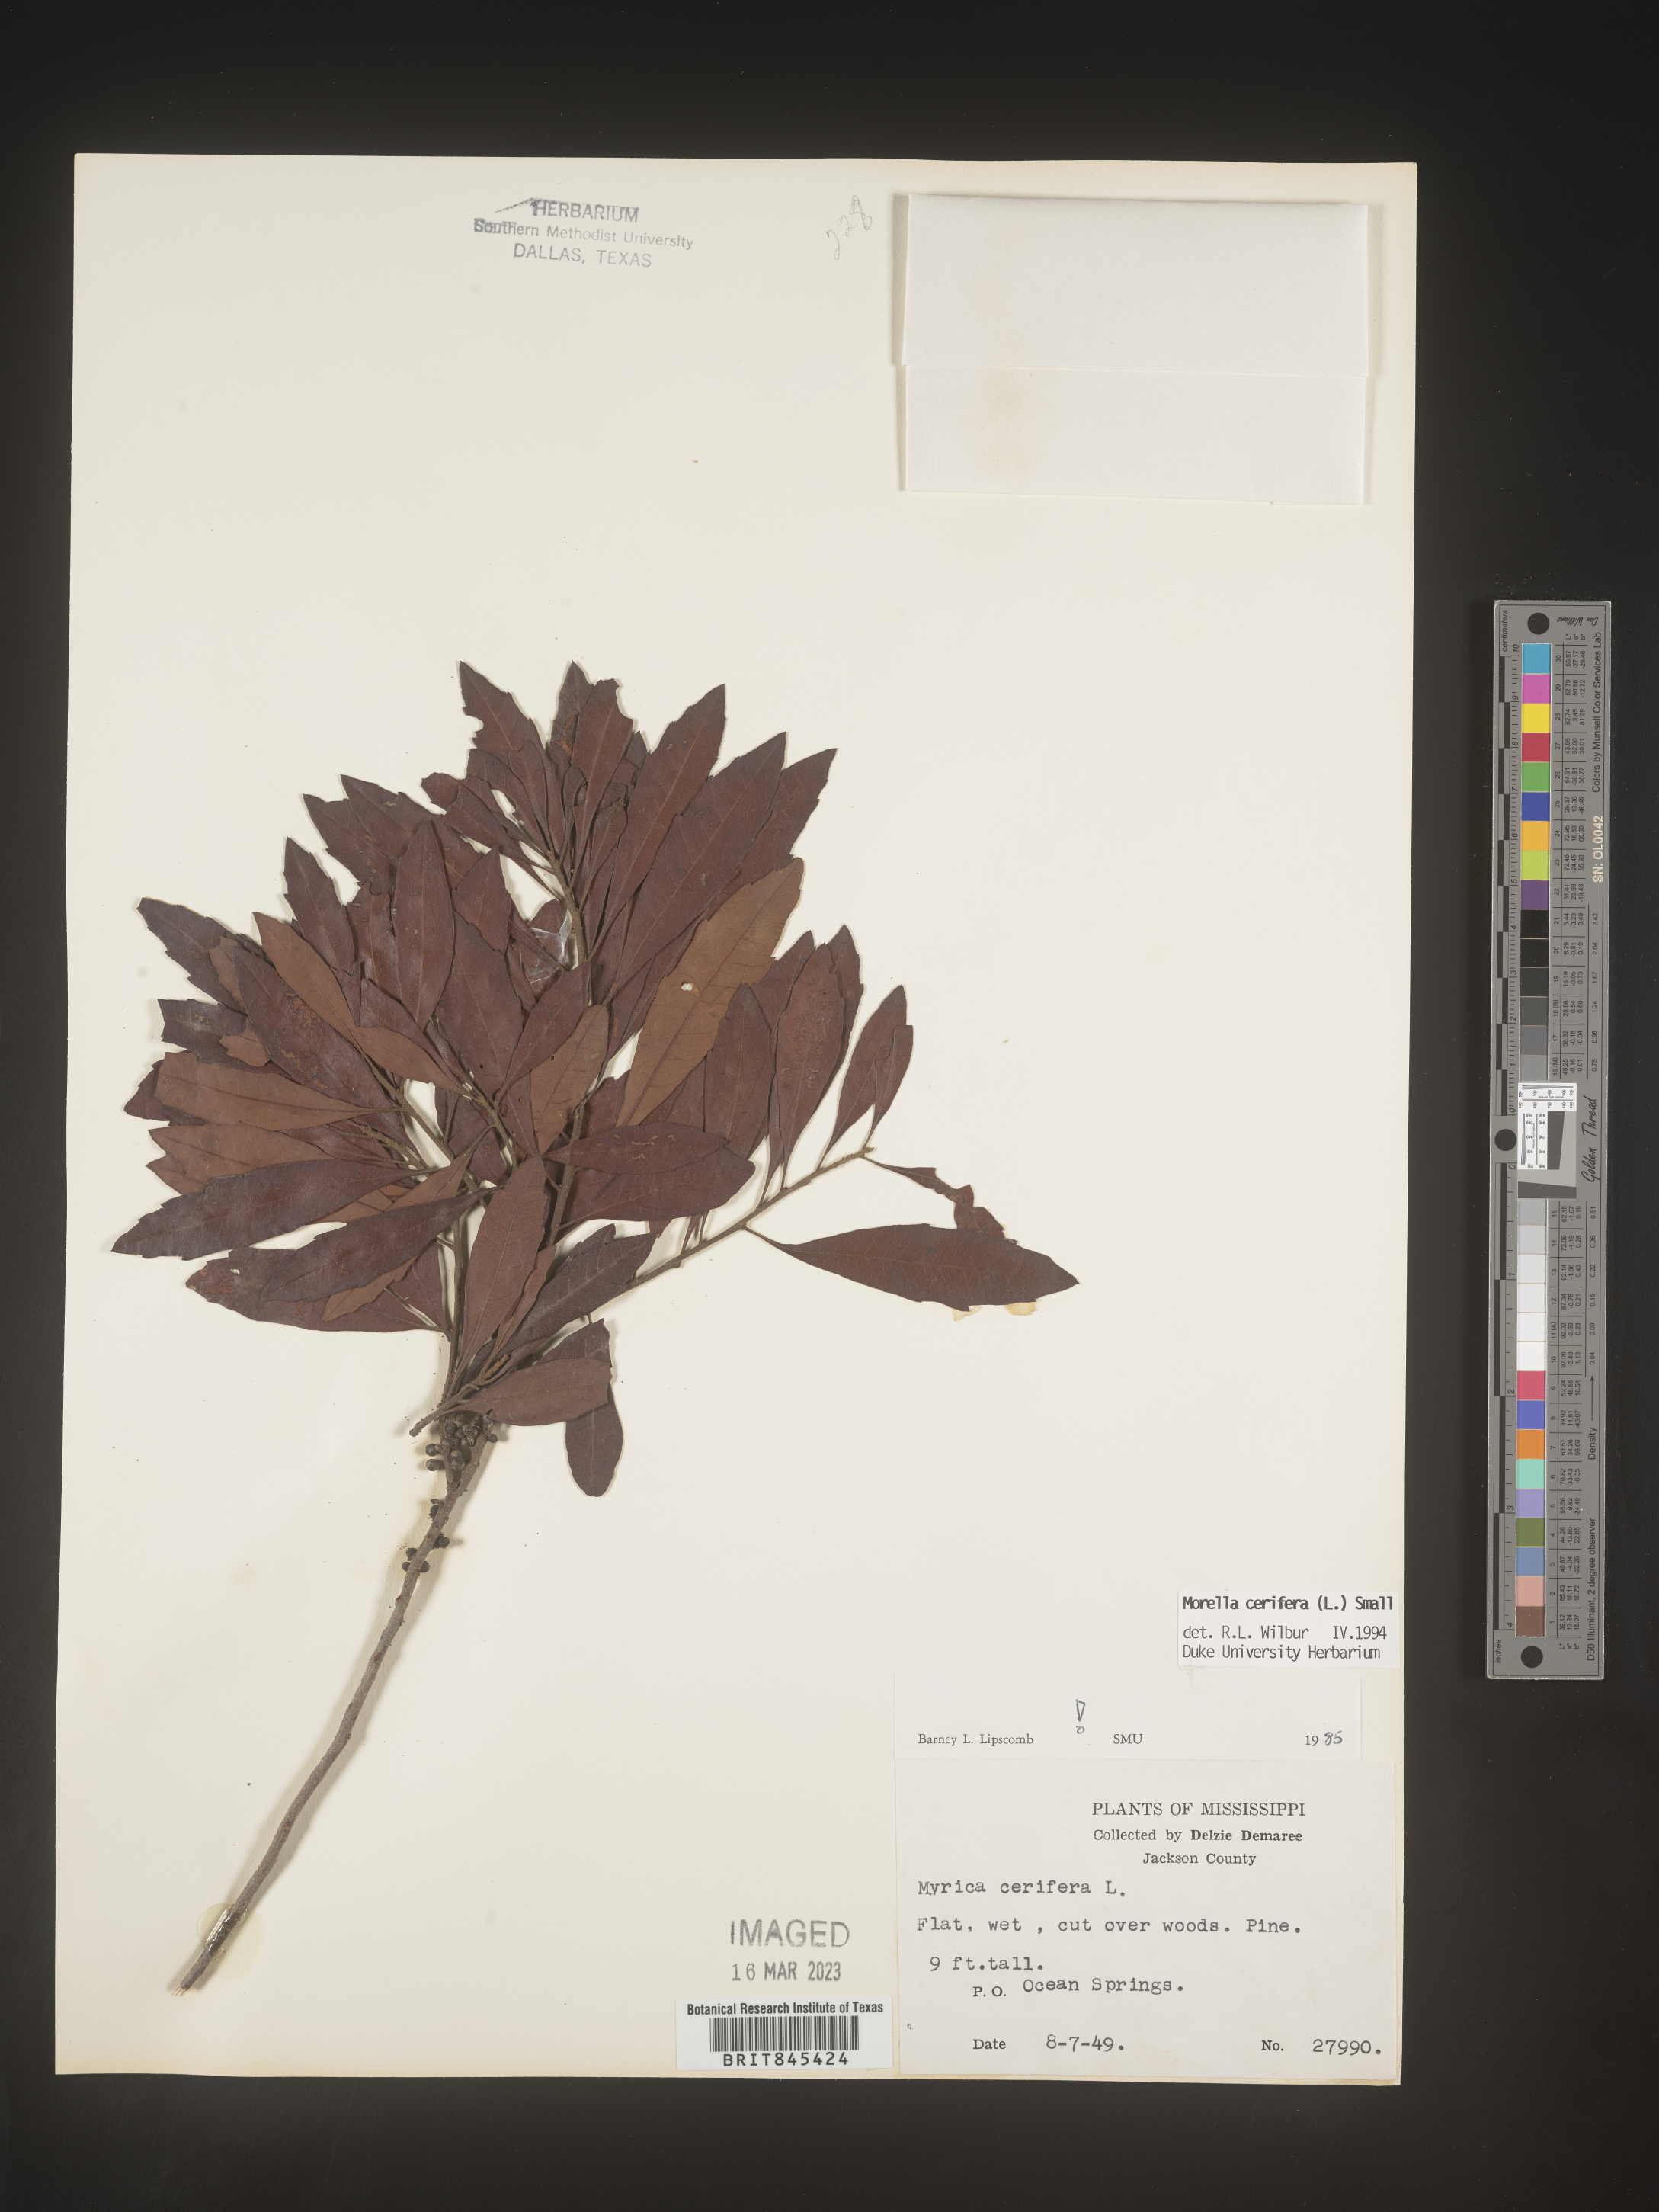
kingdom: Plantae
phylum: Tracheophyta
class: Magnoliopsida
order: Fagales
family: Myricaceae
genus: Morella
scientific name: Morella cerifera
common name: Wax myrtle
